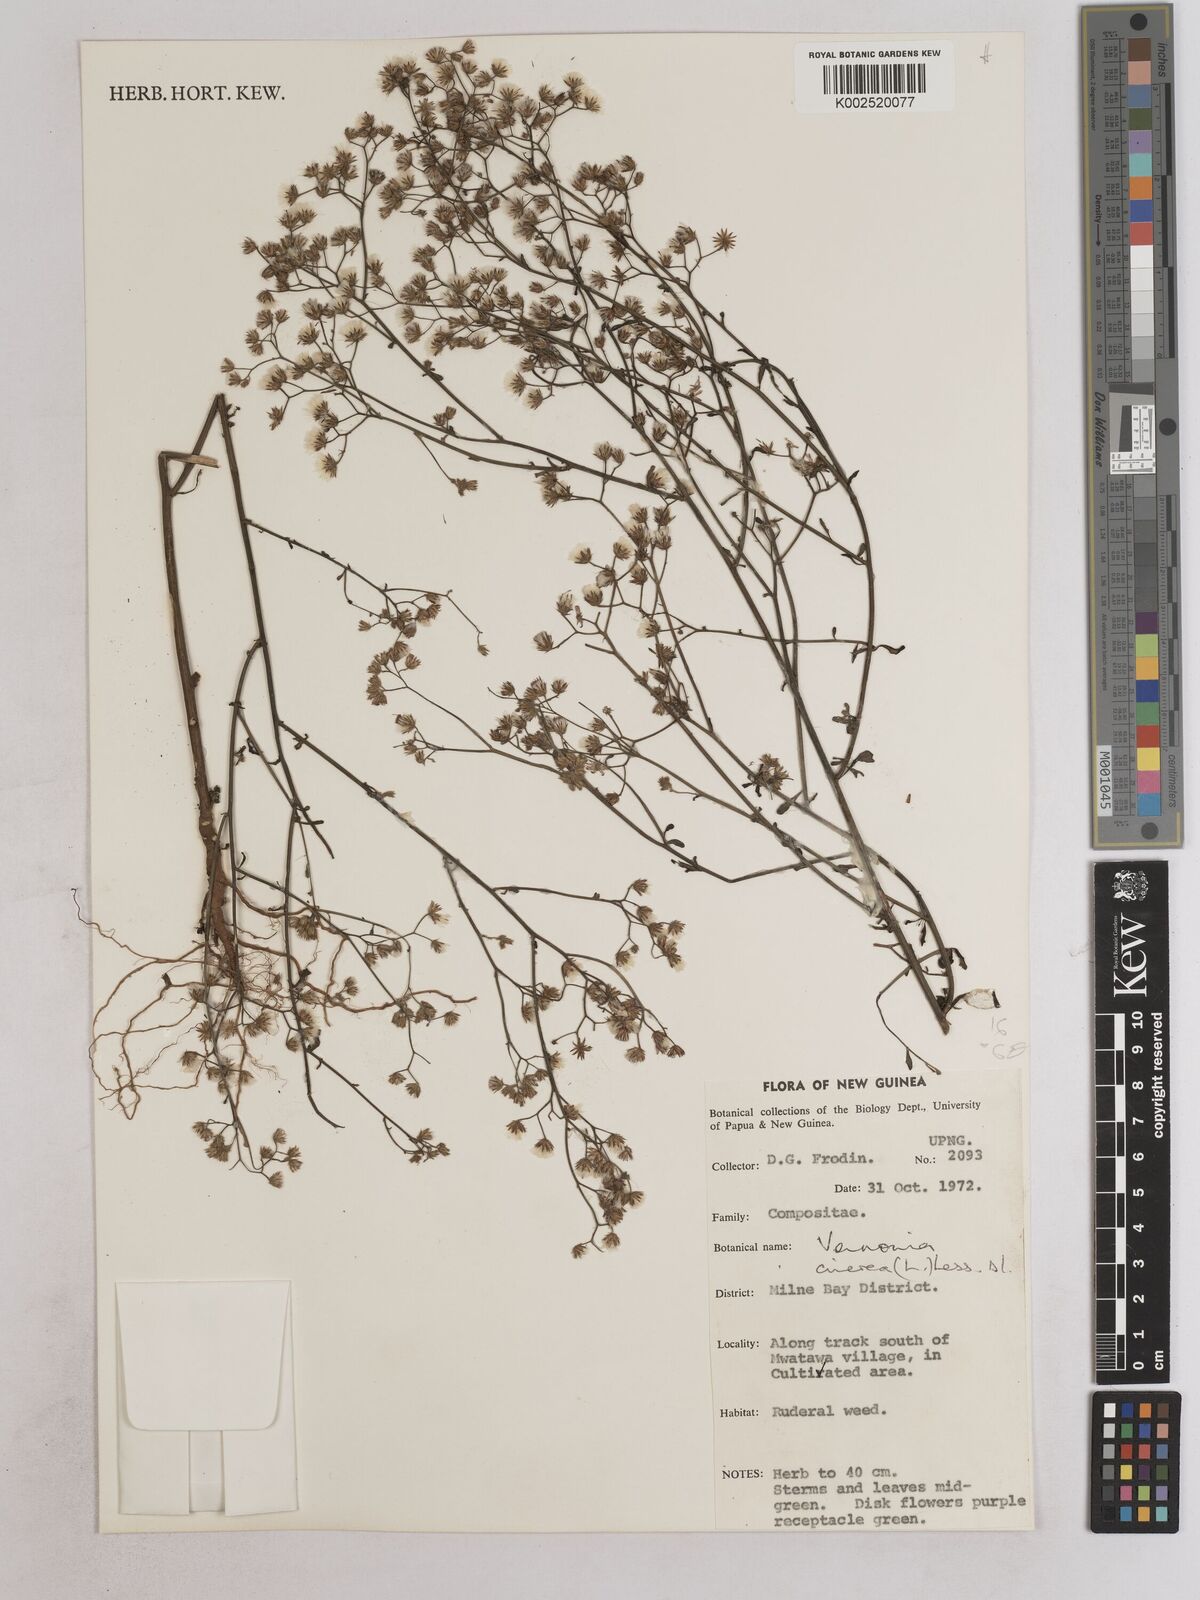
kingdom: Plantae
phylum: Tracheophyta
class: Magnoliopsida
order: Asterales
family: Asteraceae
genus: Cyanthillium
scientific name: Cyanthillium cinereum
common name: Little ironweed
